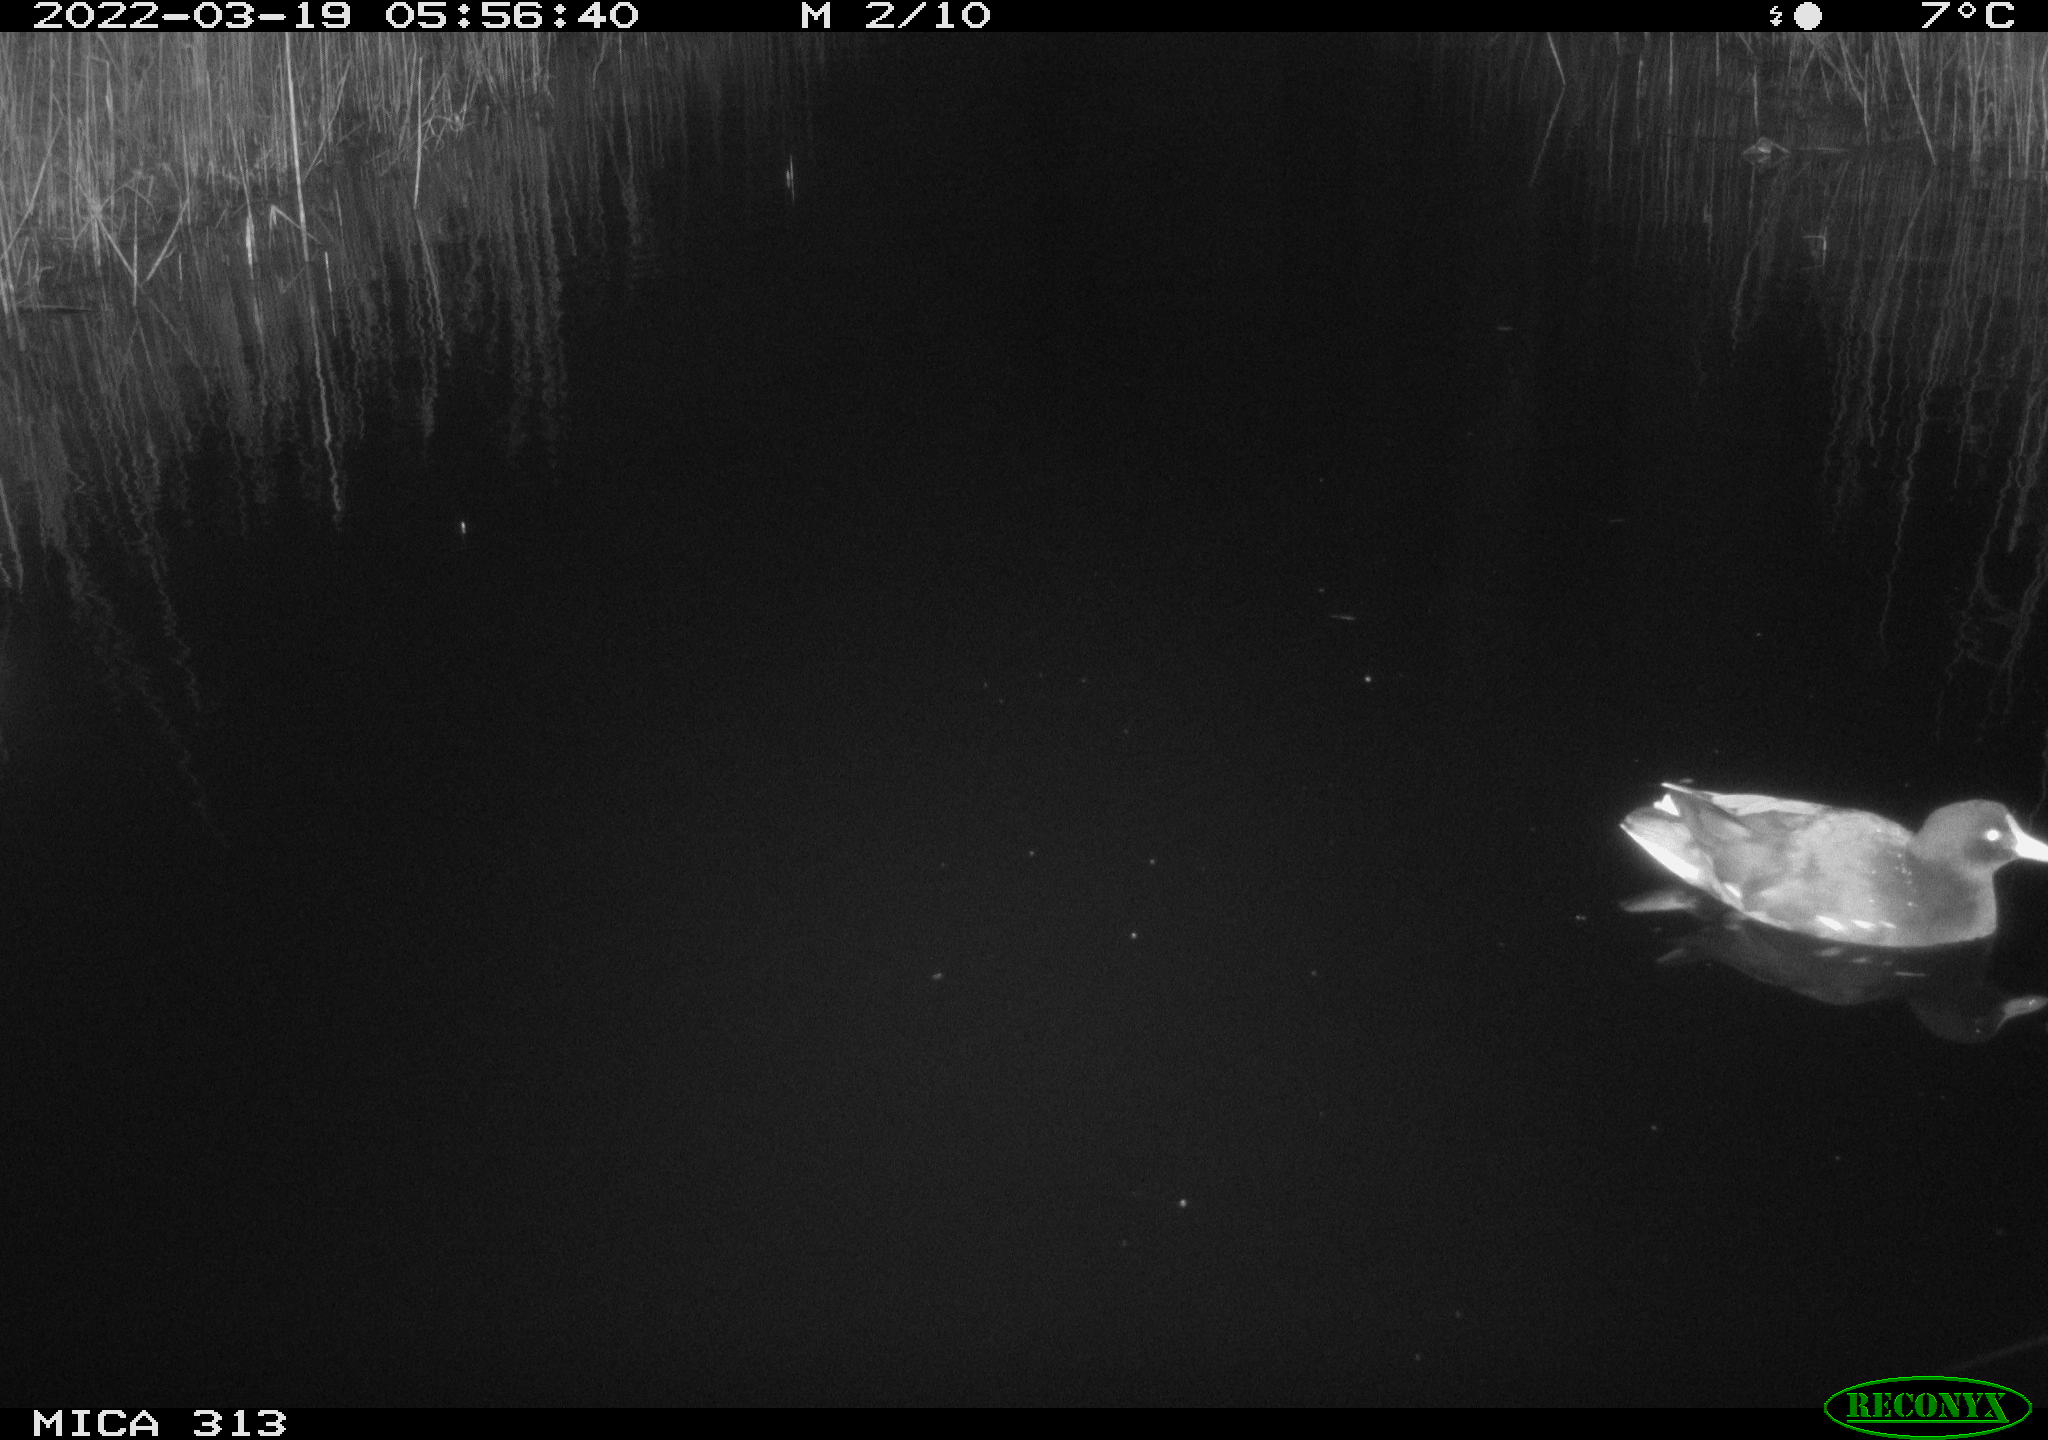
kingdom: Animalia
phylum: Chordata
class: Aves
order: Gruiformes
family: Rallidae
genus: Gallinula
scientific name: Gallinula chloropus
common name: Common moorhen
